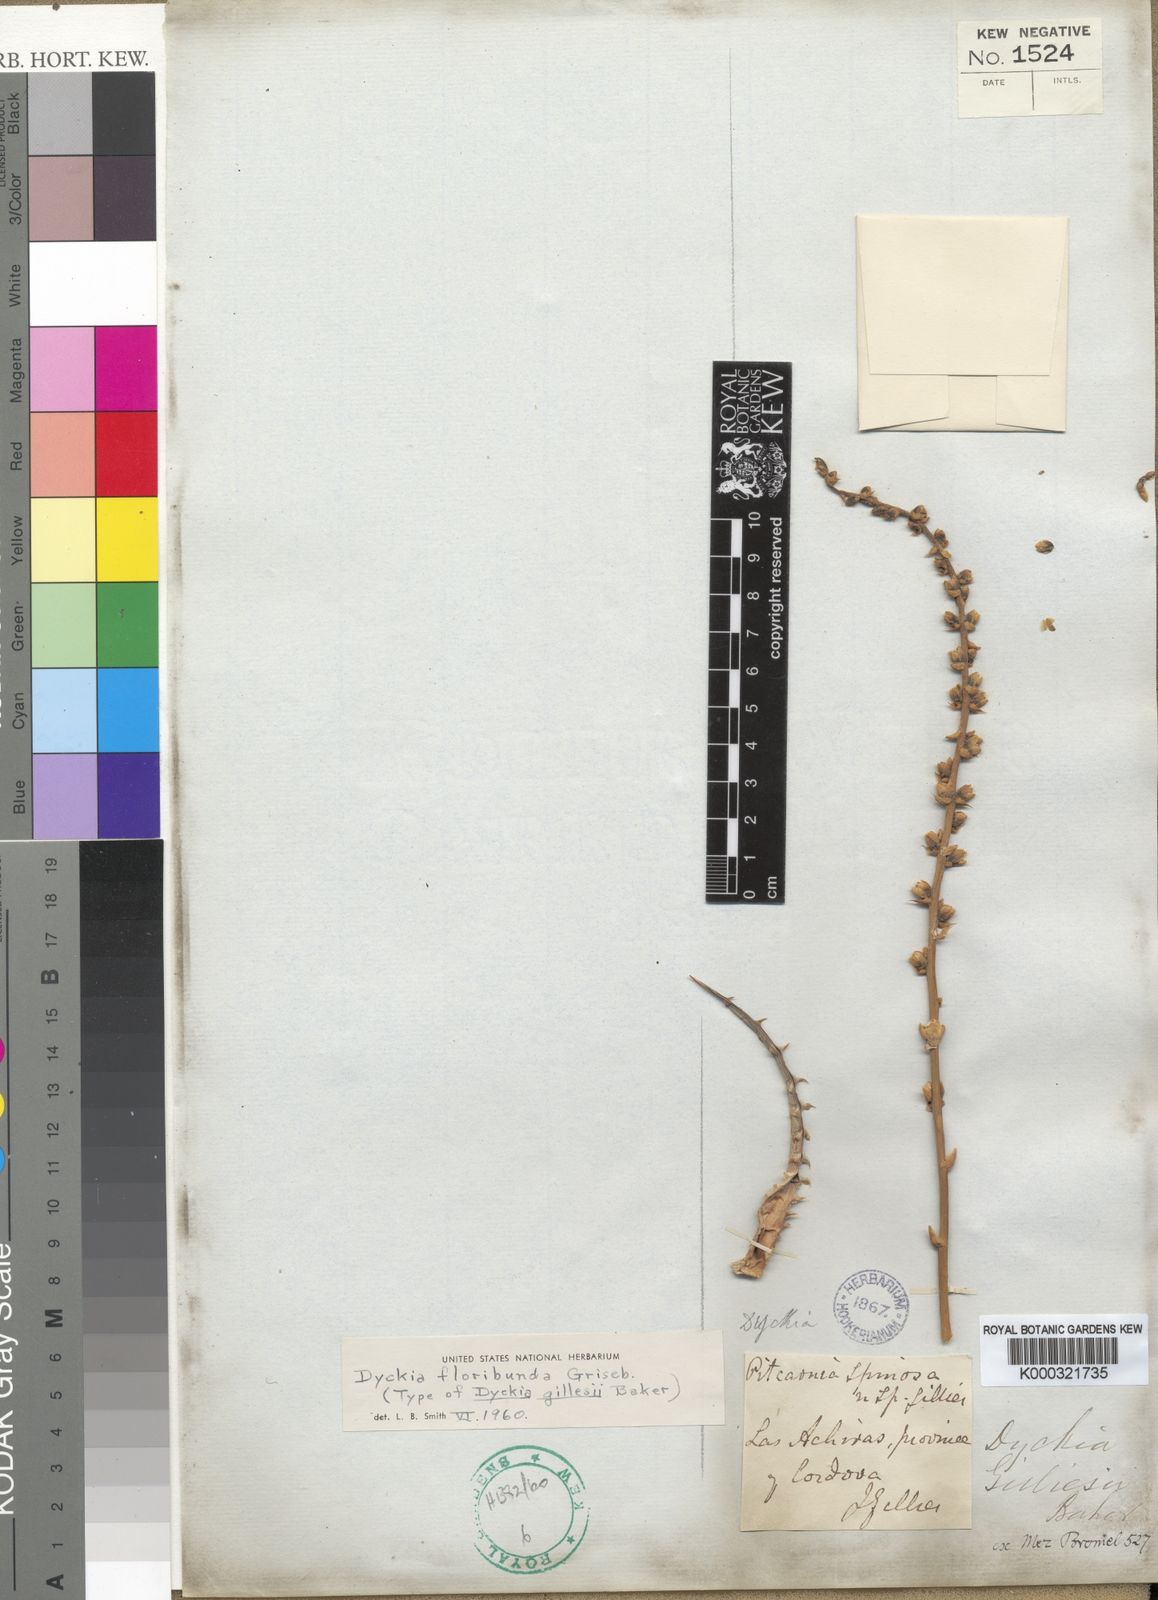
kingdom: Plantae
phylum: Tracheophyta
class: Liliopsida
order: Poales
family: Bromeliaceae
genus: Dyckia
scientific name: Dyckia floribunda
